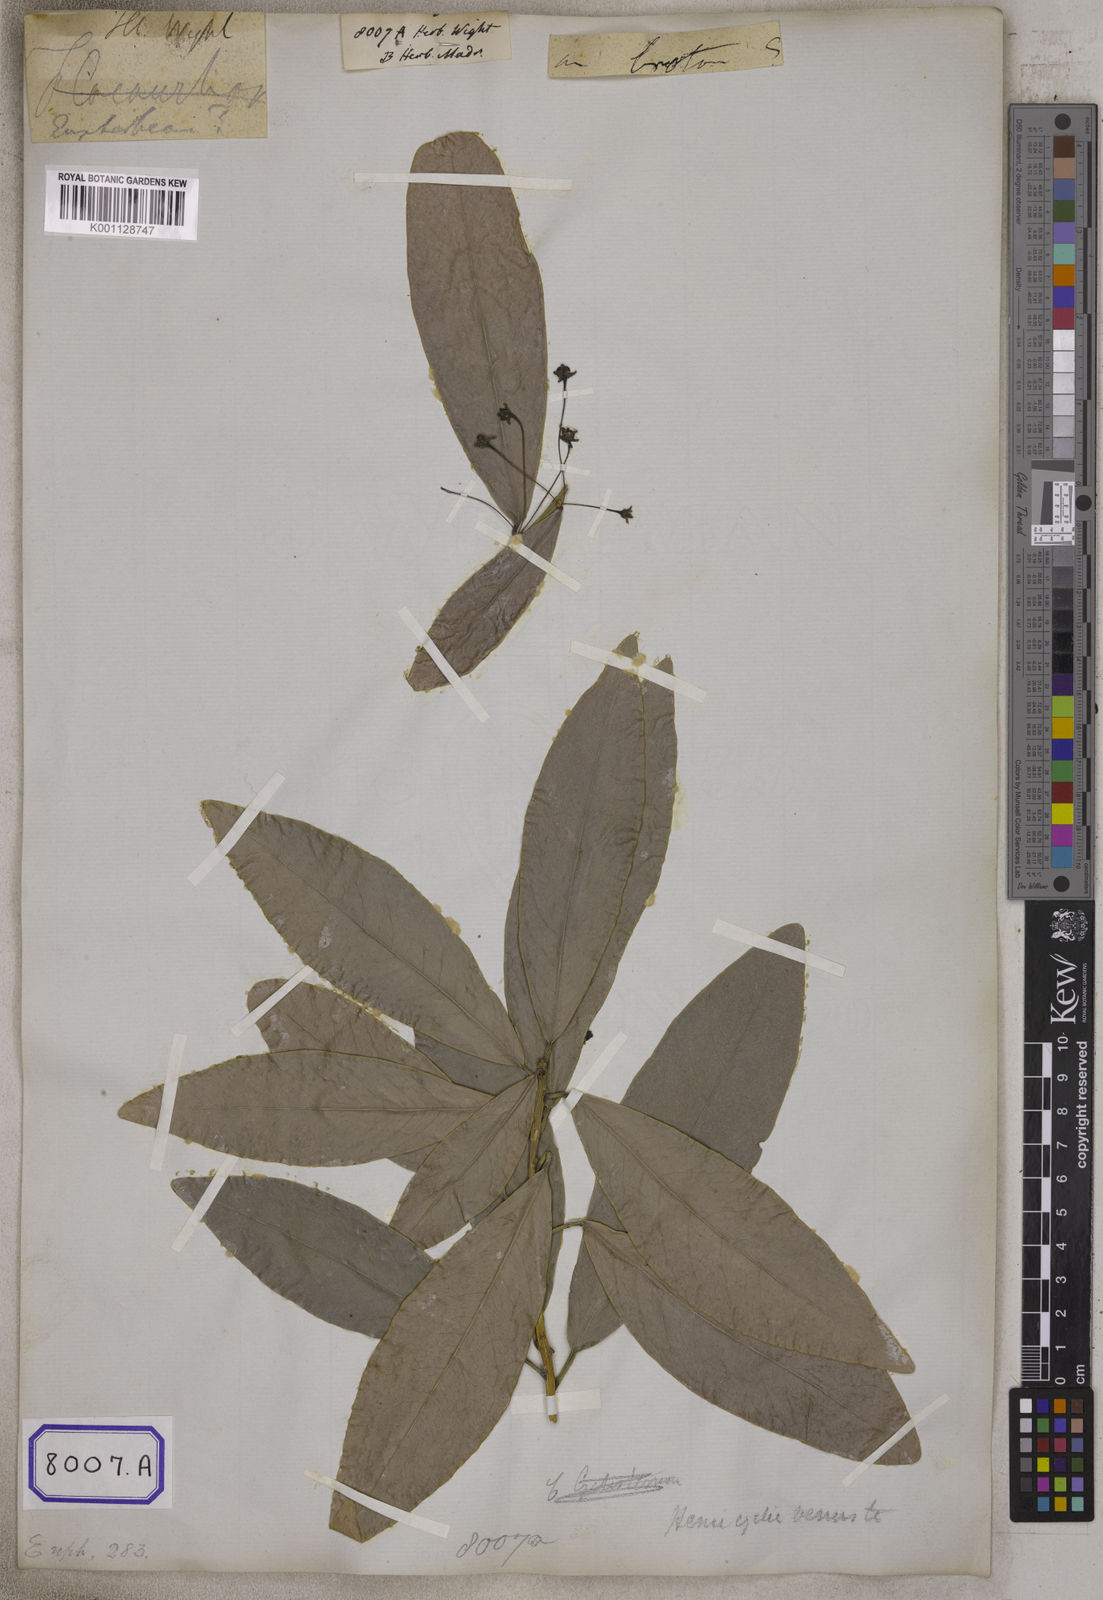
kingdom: Plantae
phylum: Tracheophyta
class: Magnoliopsida
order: Malpighiales
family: Euphorbiaceae
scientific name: Euphorbiaceae
